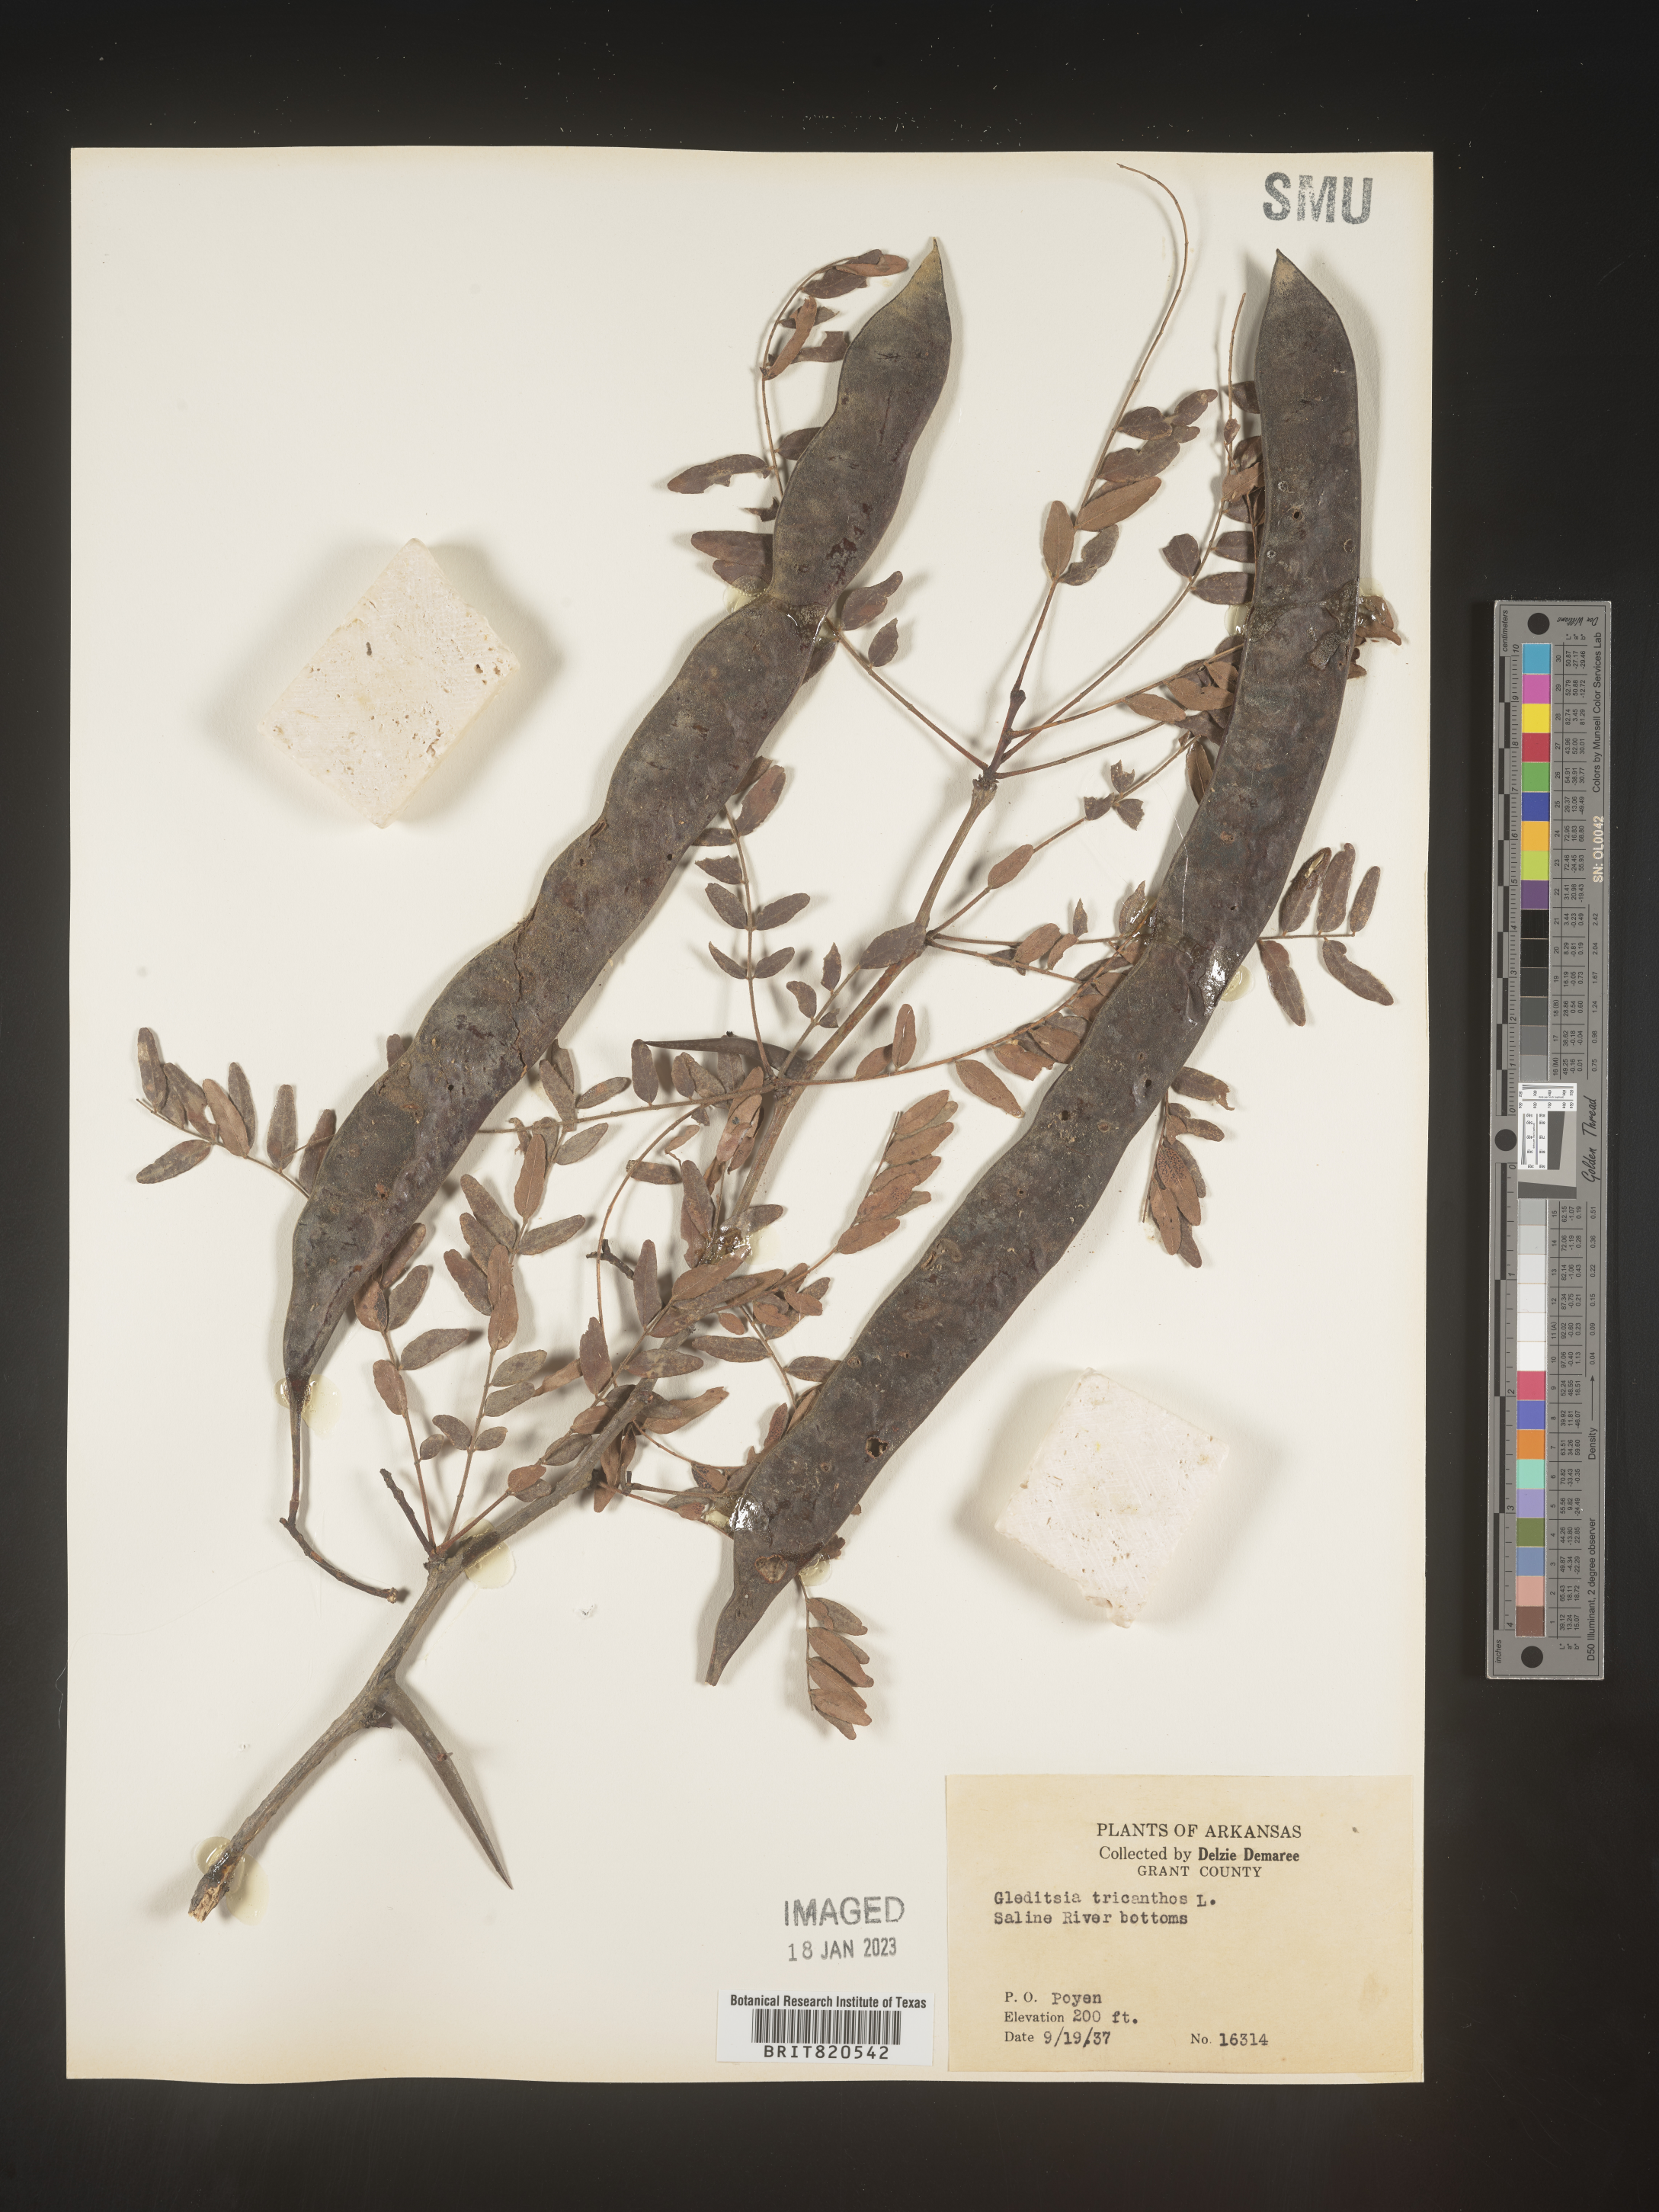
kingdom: Plantae
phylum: Tracheophyta
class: Magnoliopsida
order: Fabales
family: Fabaceae
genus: Gleditsia
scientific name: Gleditsia triacanthos
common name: Common honeylocust
